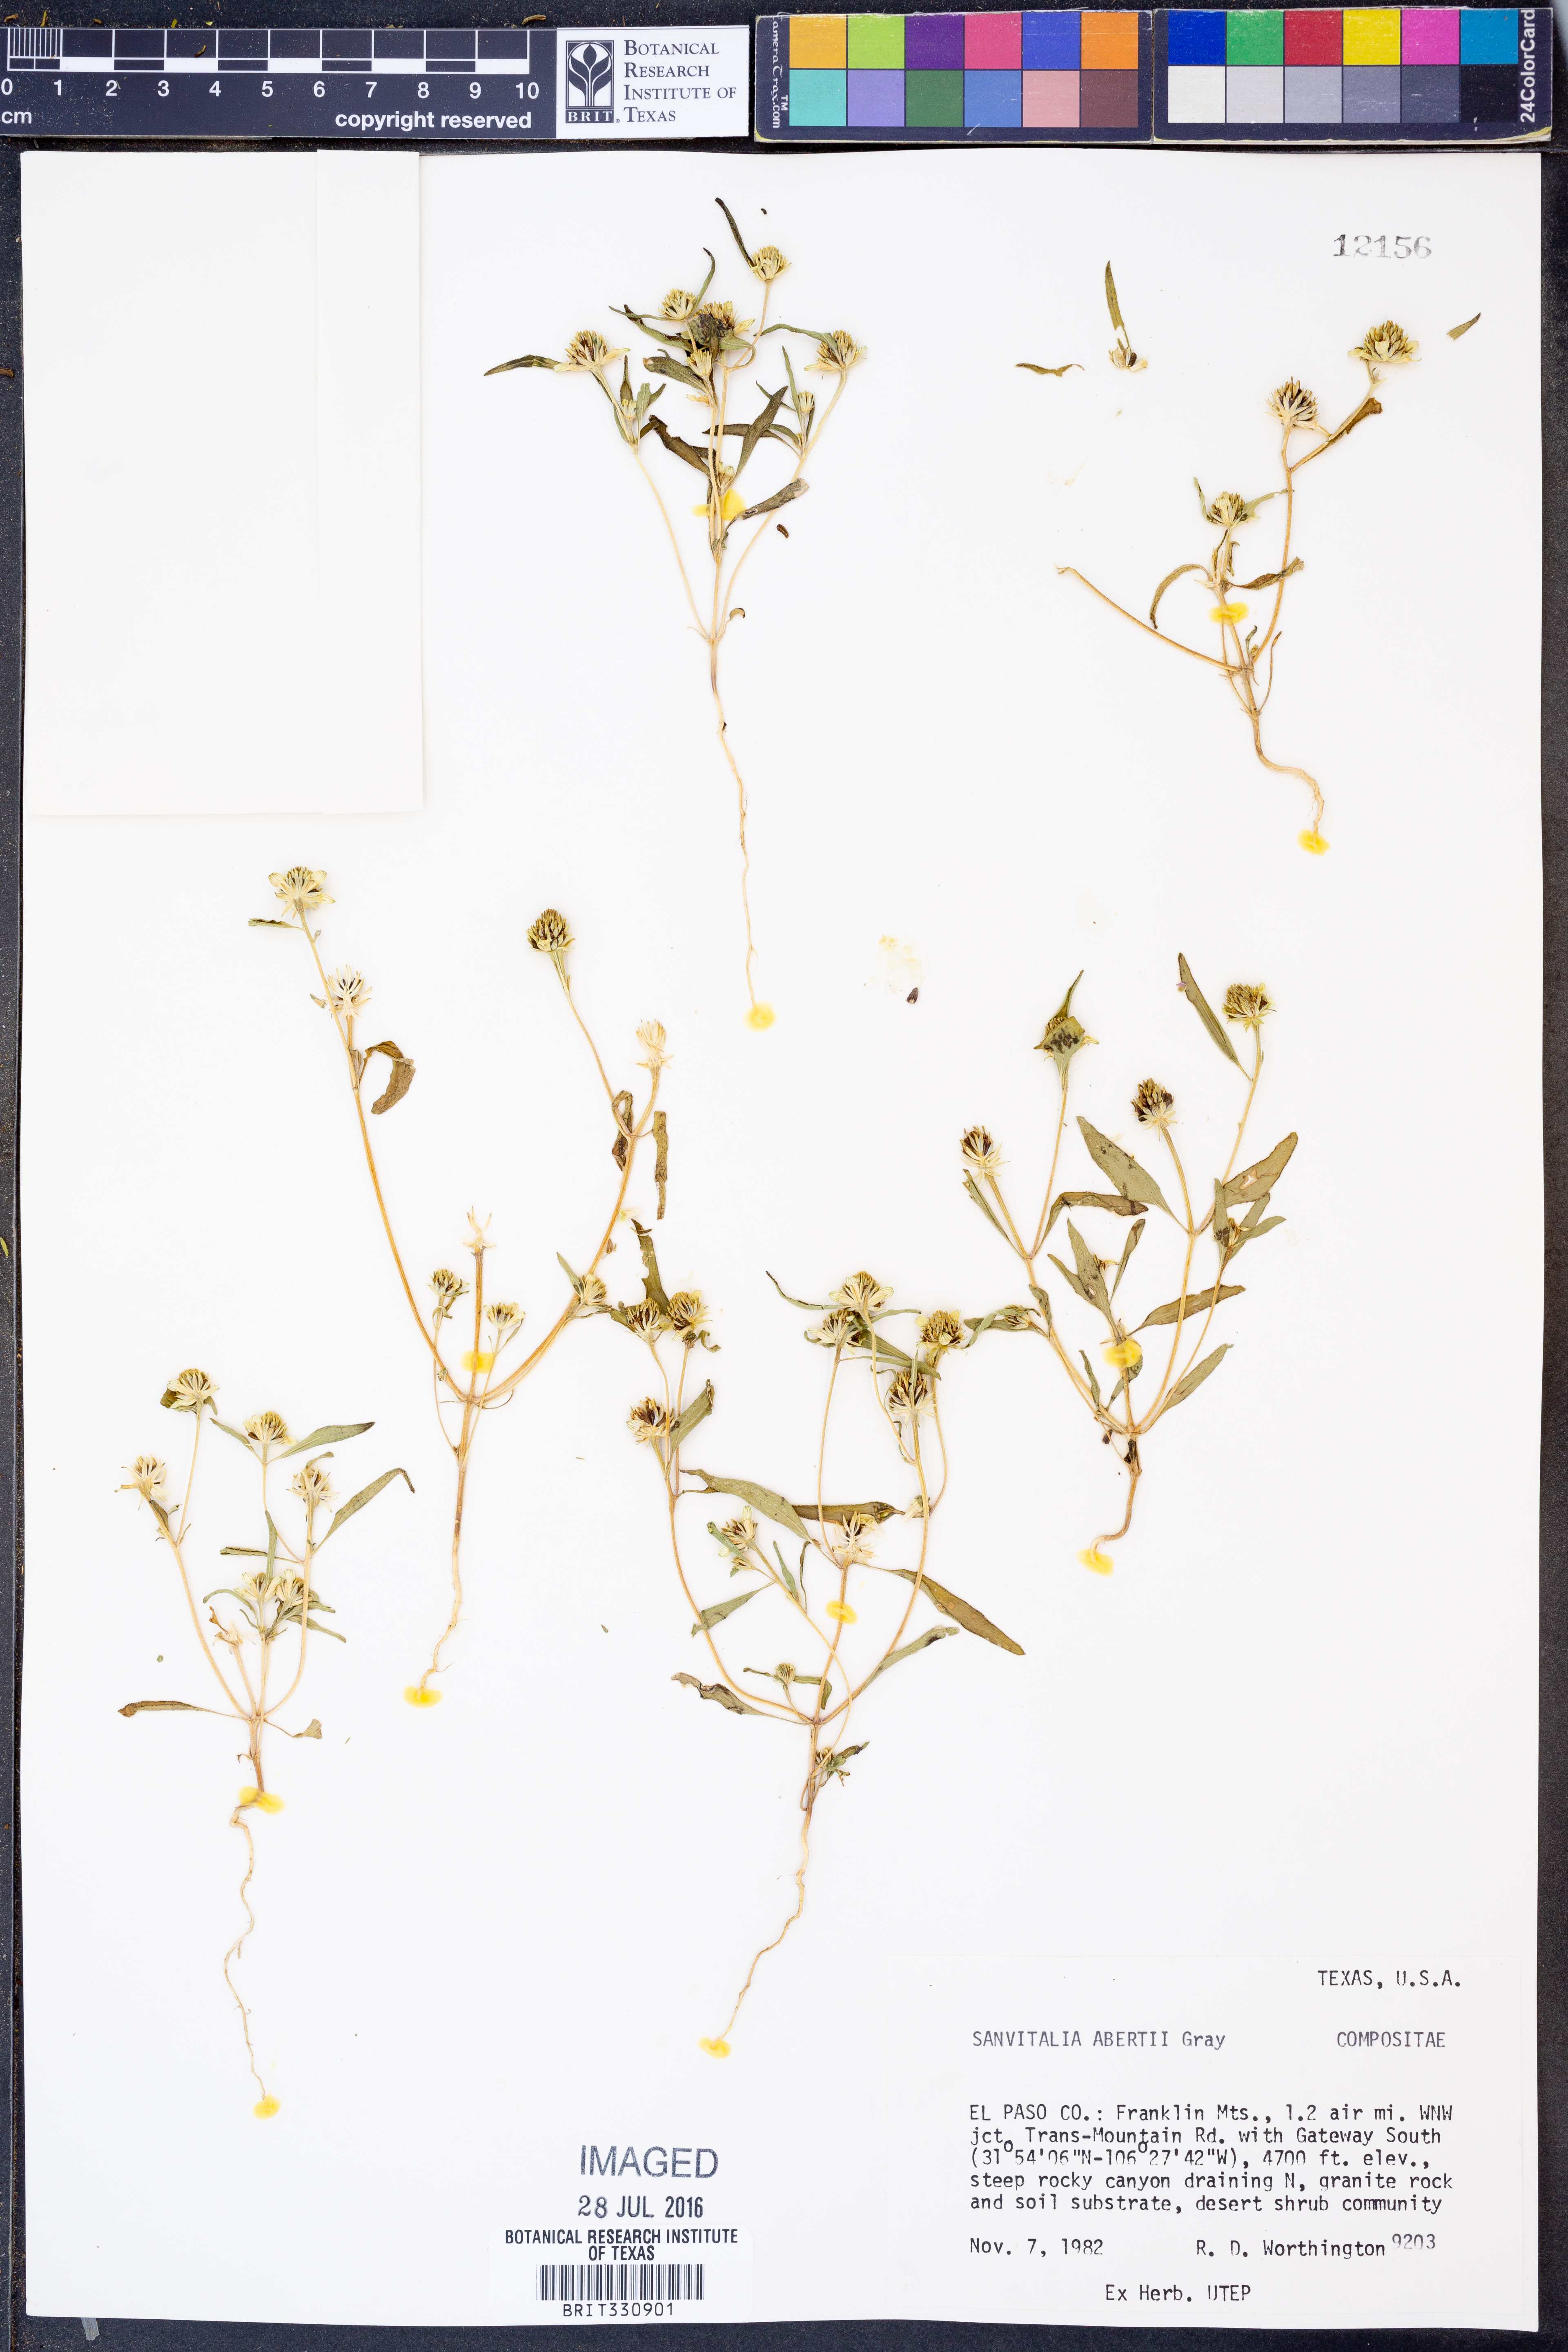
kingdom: Plantae
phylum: Tracheophyta
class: Magnoliopsida
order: Asterales
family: Asteraceae
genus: Sanvitalia
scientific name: Sanvitalia abertii
